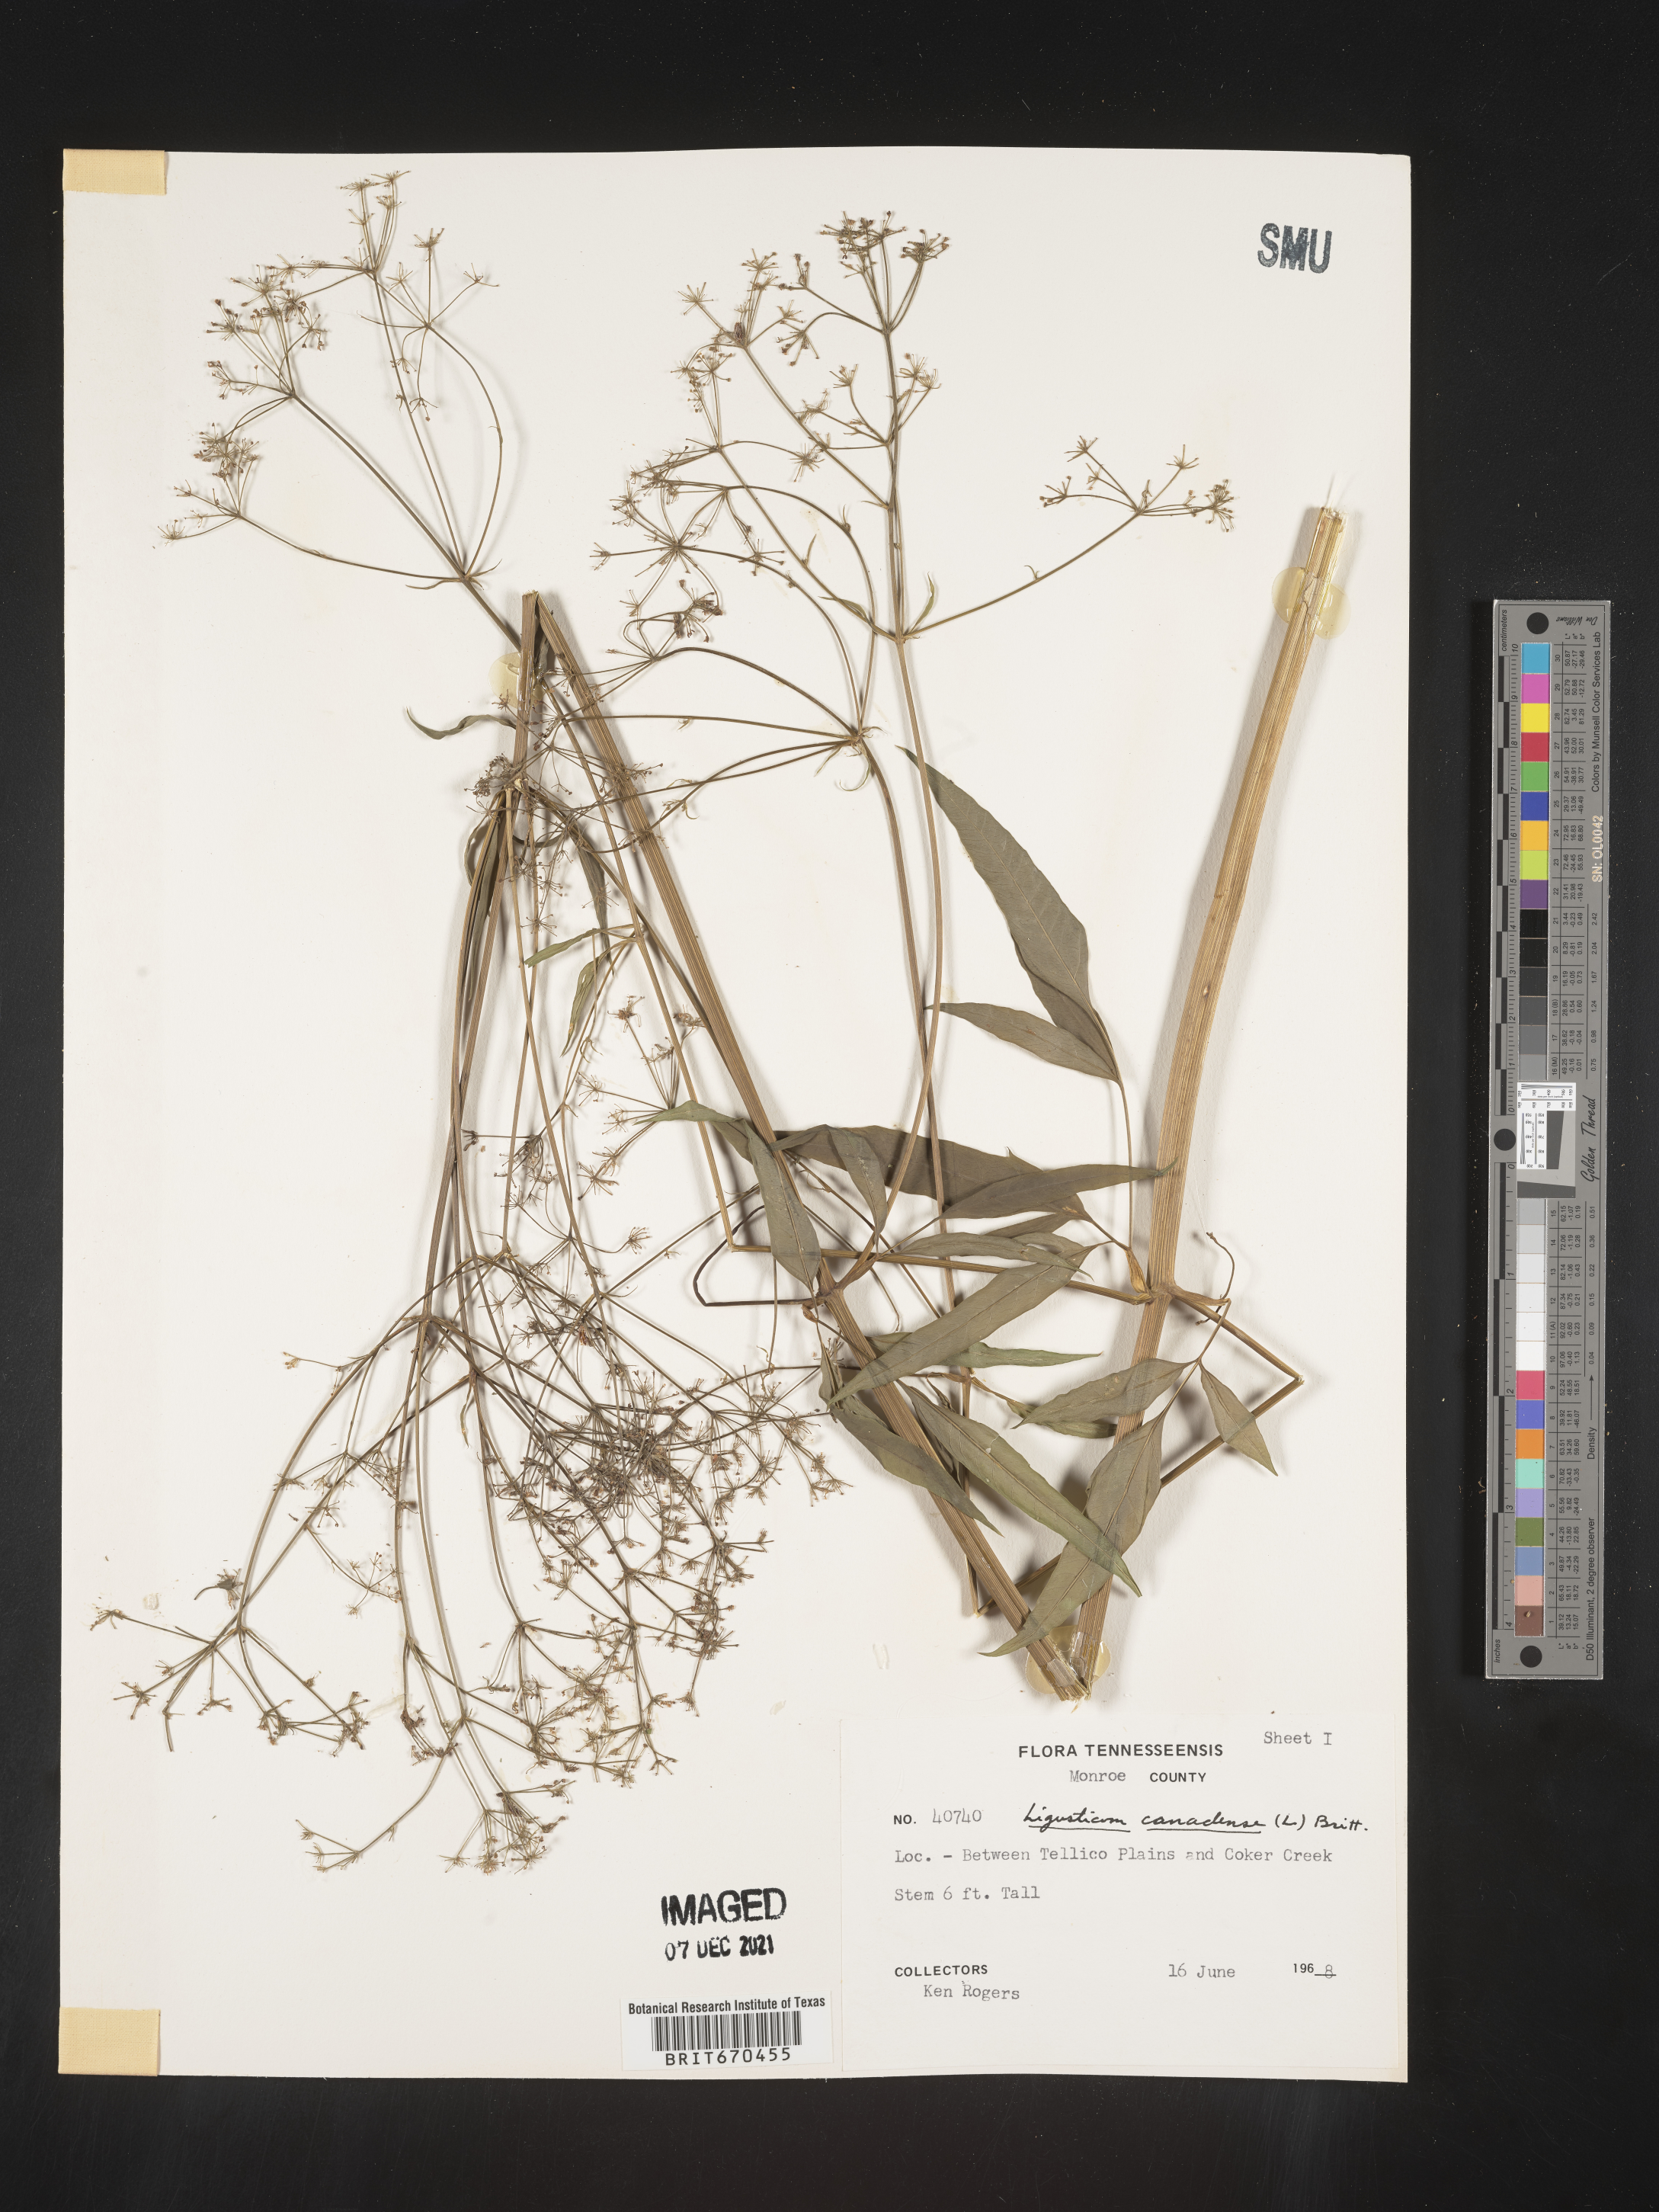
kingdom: Plantae
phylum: Tracheophyta
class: Magnoliopsida
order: Apiales
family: Apiaceae
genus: Ligusticum
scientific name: Ligusticum
